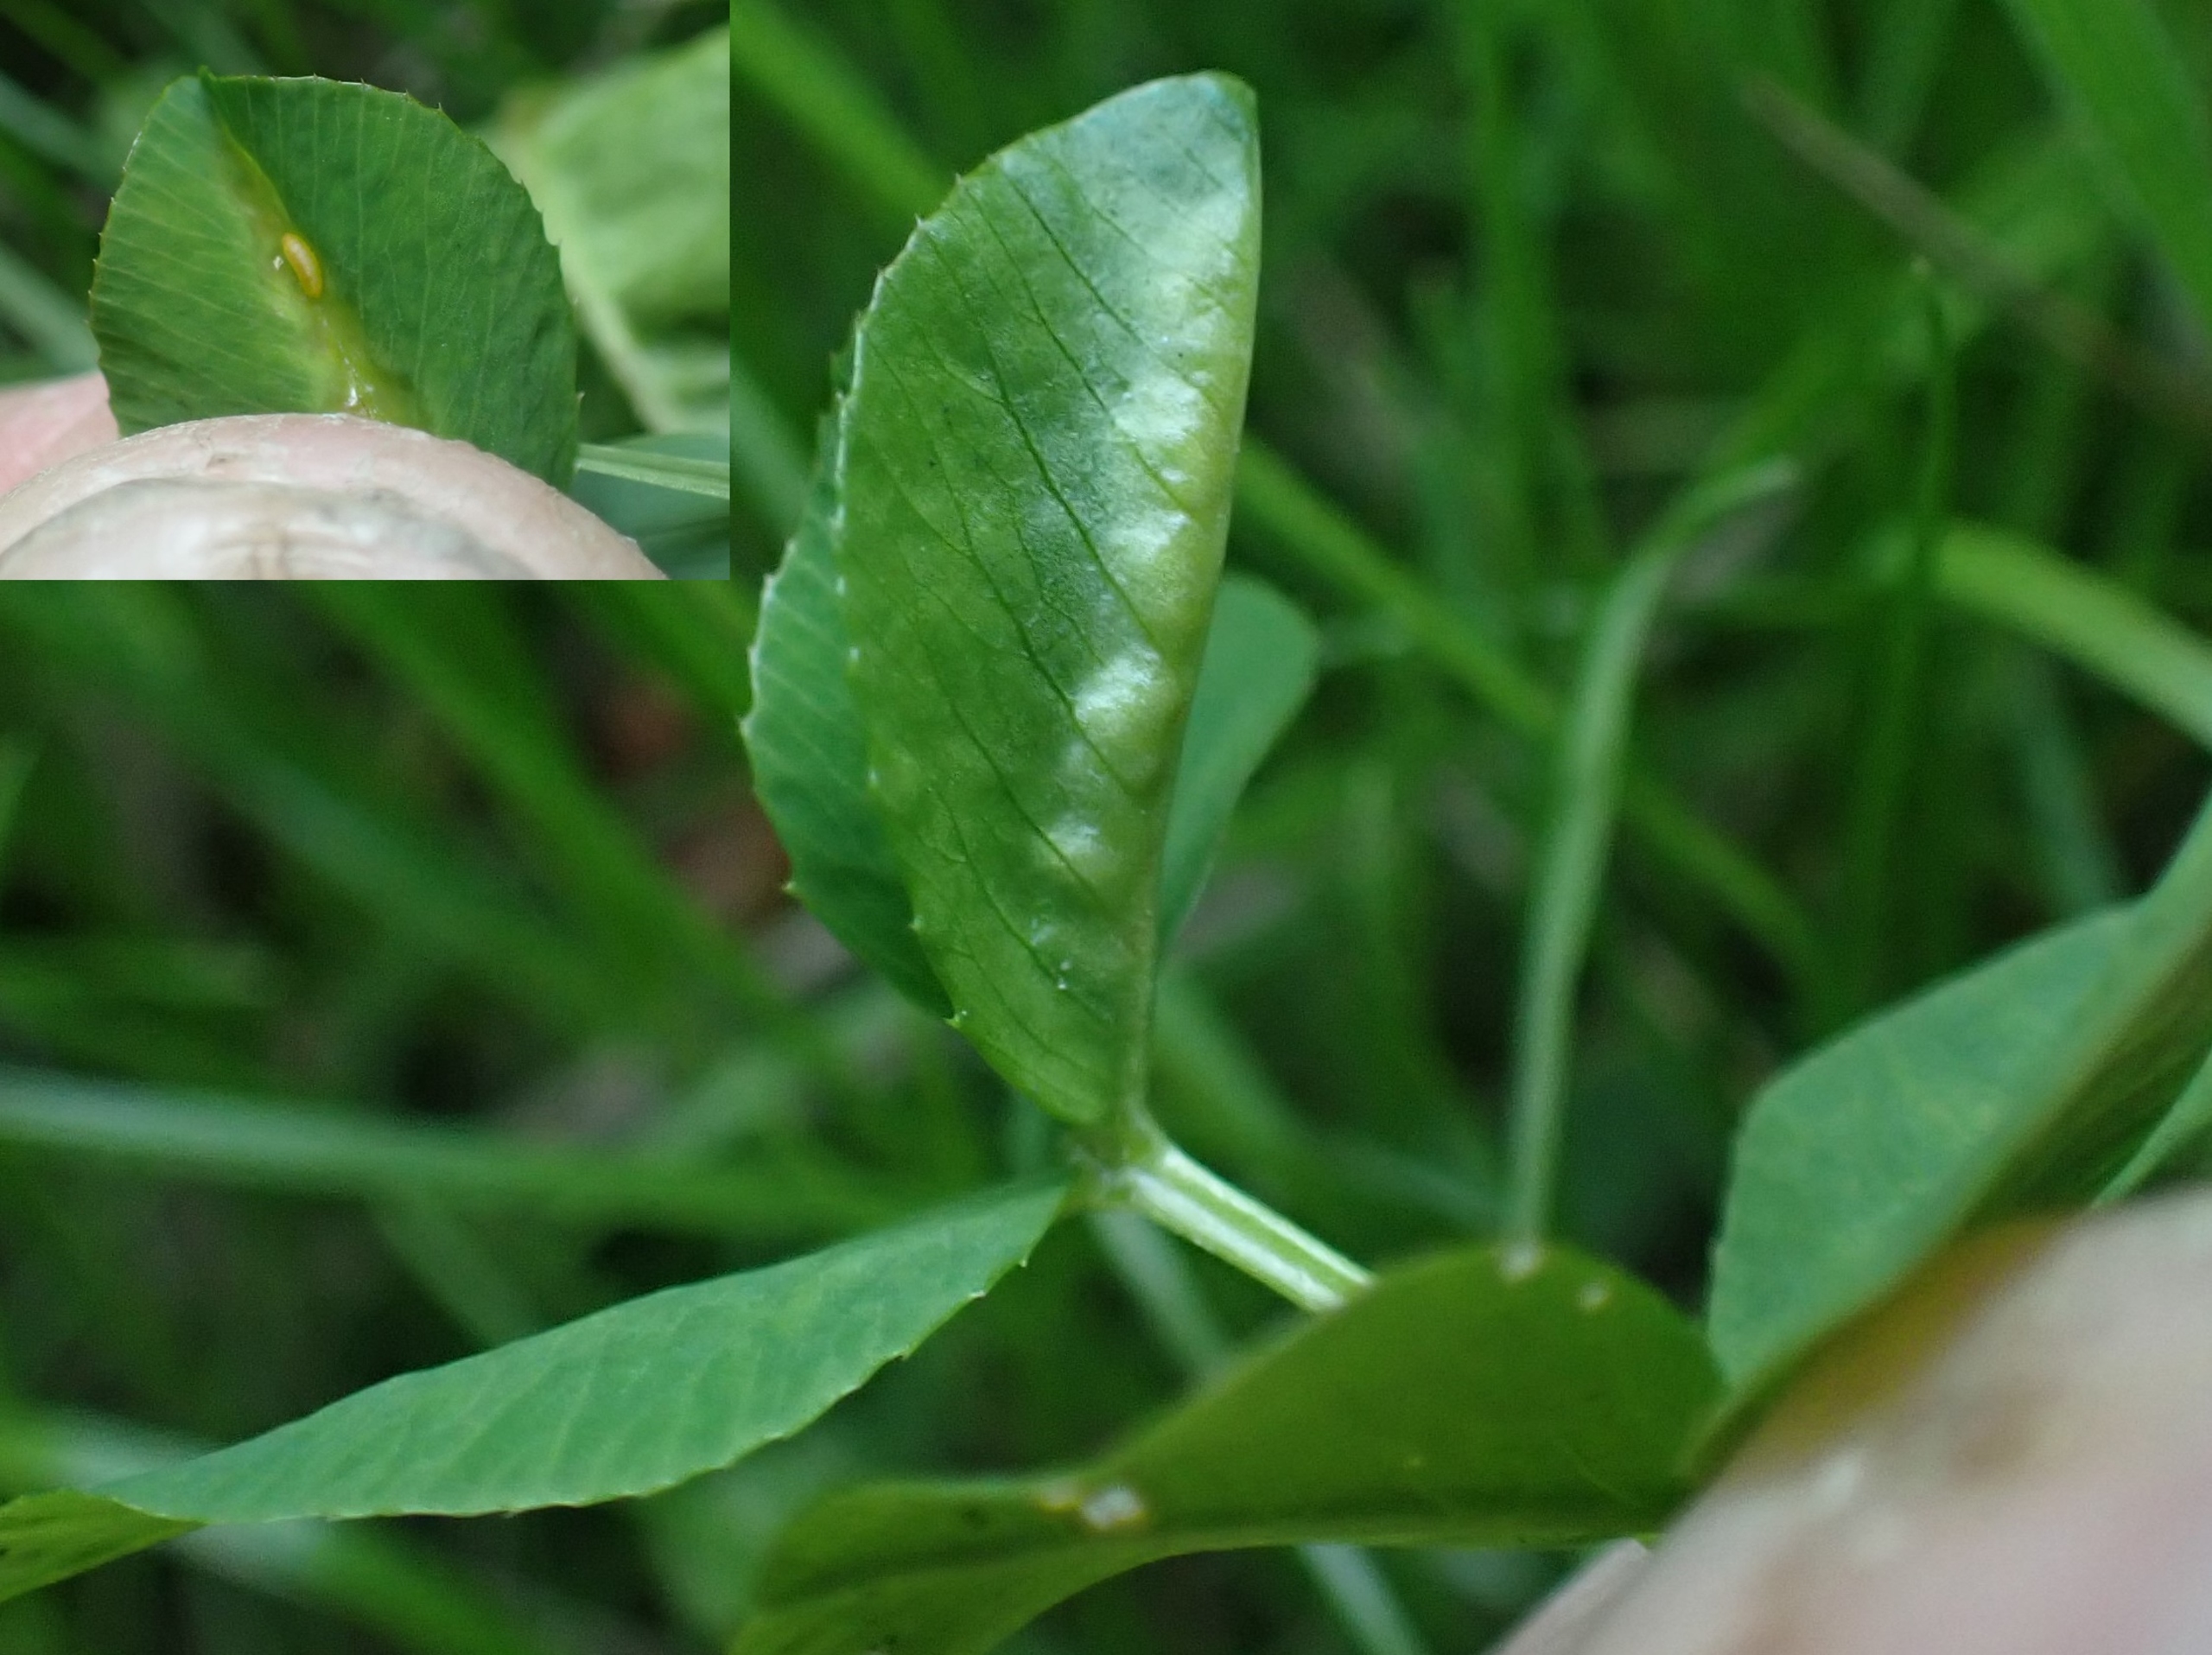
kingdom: Animalia
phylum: Arthropoda
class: Insecta
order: Diptera
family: Cecidomyiidae
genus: Dasineura
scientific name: Dasineura trifolii
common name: Kløverbladgalmyg
